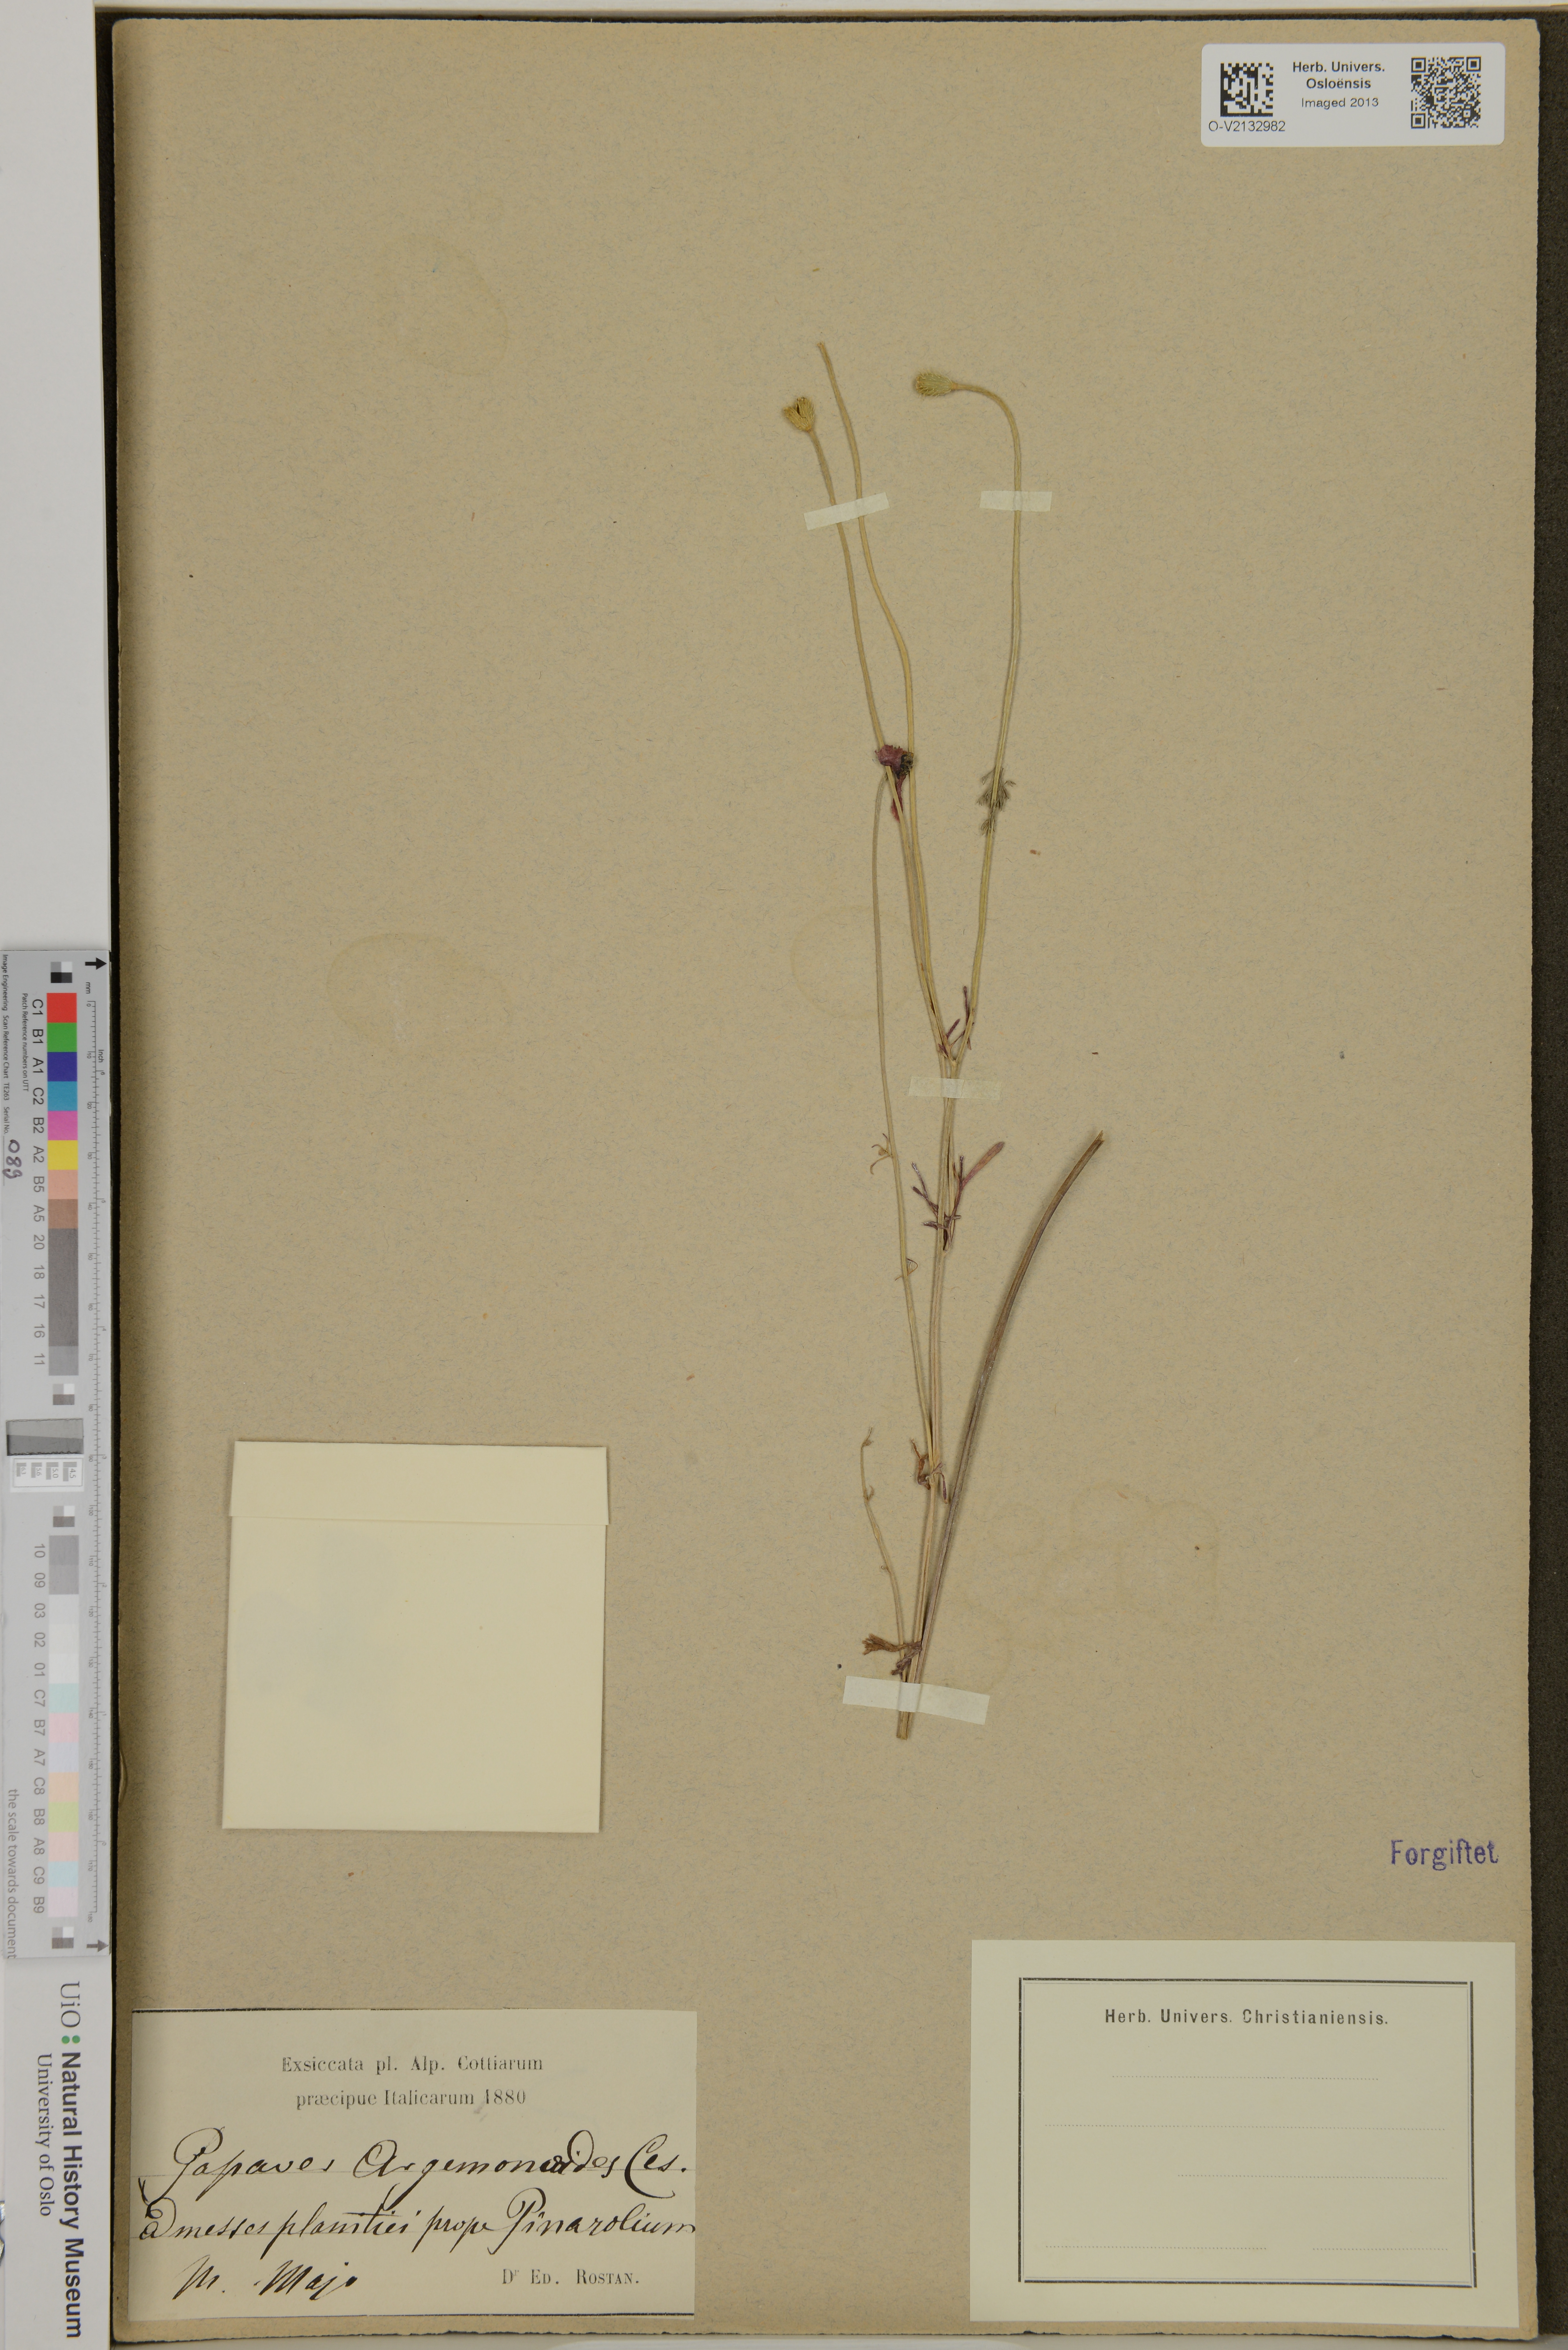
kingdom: Plantae
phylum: Tracheophyta
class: Magnoliopsida
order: Ranunculales
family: Papaveraceae
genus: Roemeria
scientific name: Roemeria apula
